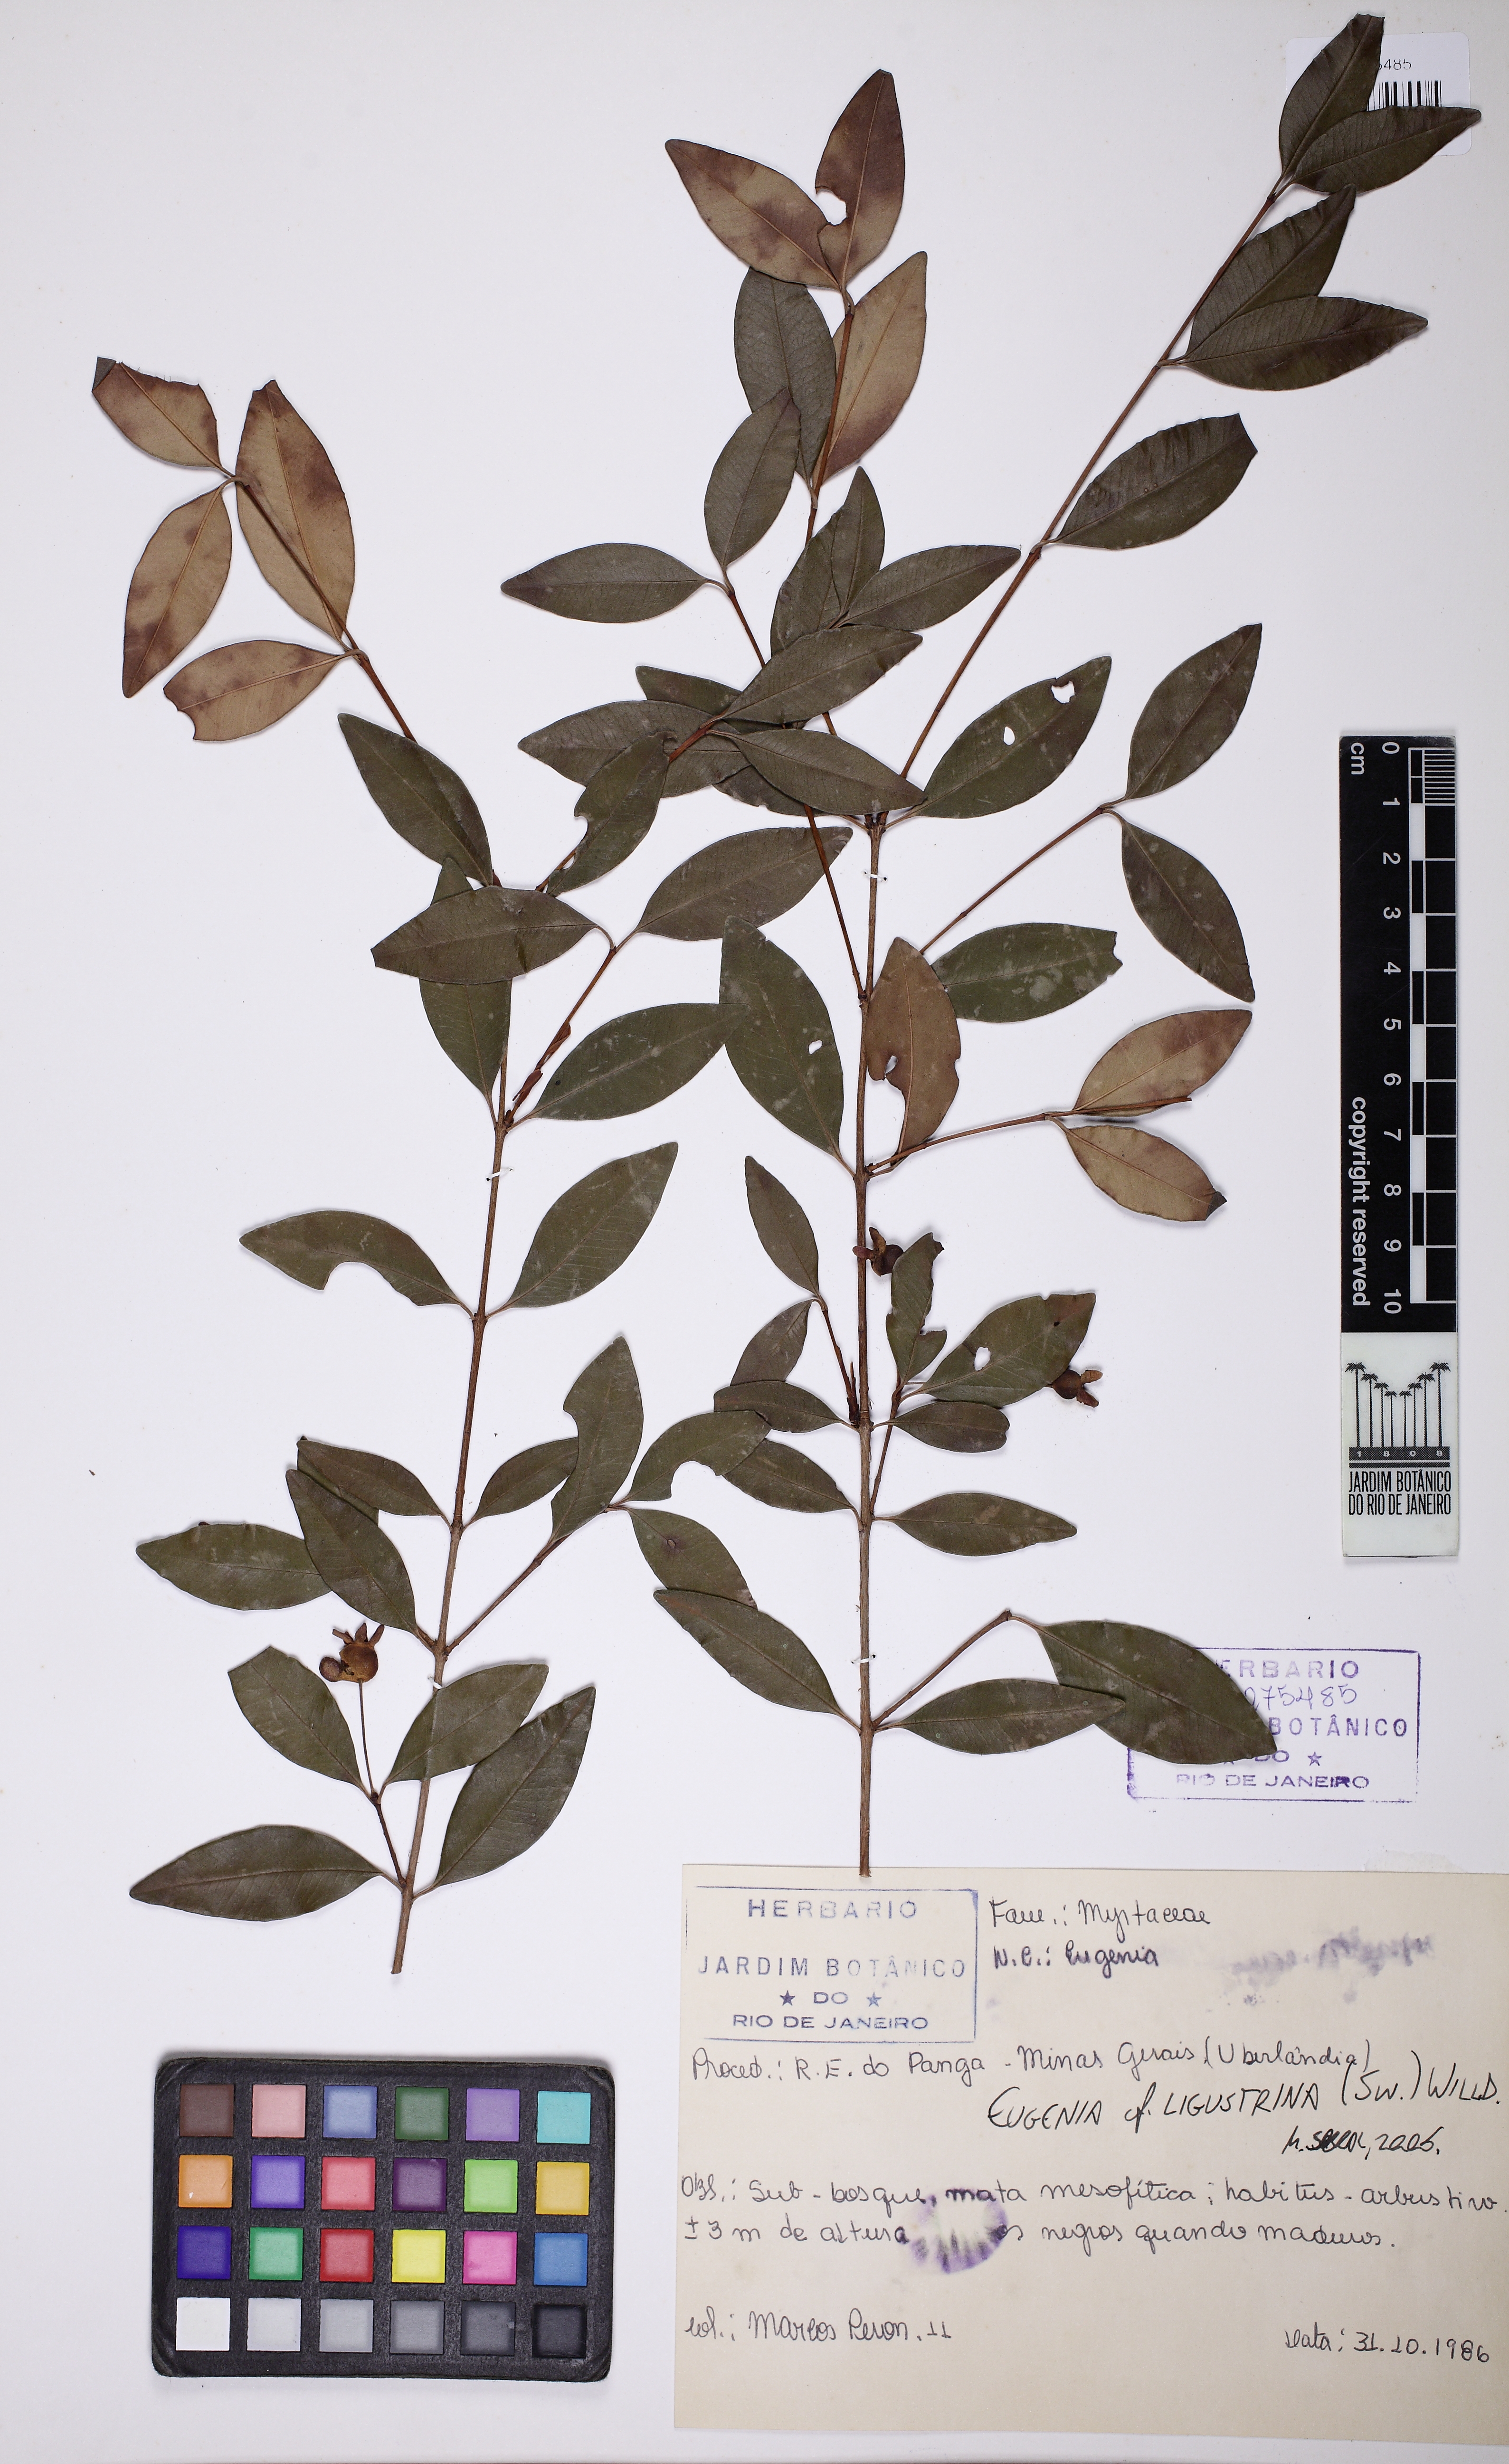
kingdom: Plantae
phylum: Tracheophyta
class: Magnoliopsida
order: Myrtales
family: Myrtaceae
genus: Eugenia
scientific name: Eugenia ligustrina
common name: Privet stopper
